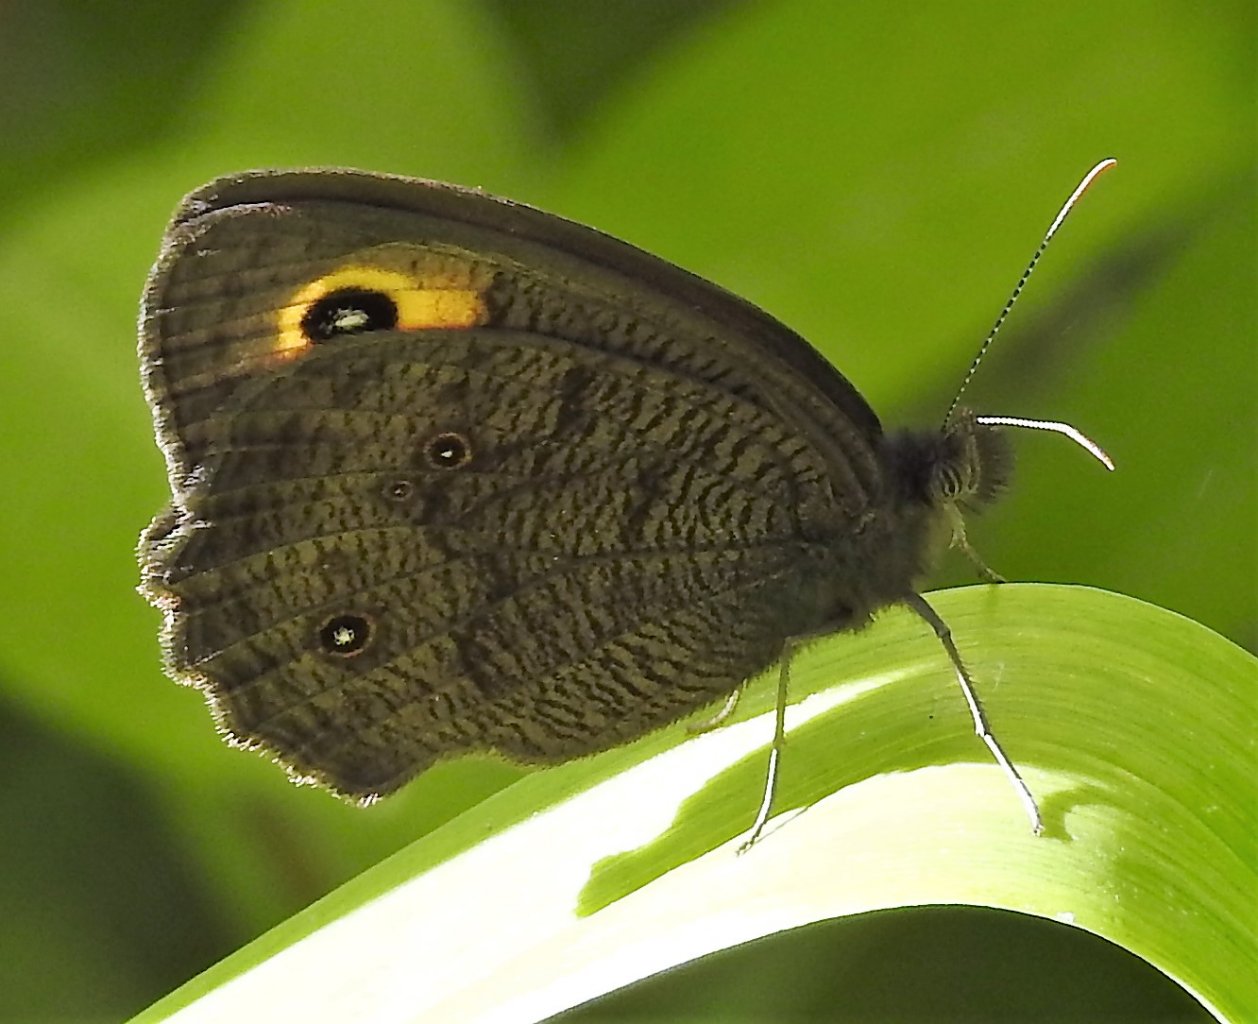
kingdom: Animalia
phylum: Arthropoda
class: Insecta
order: Lepidoptera
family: Nymphalidae
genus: Cercyonis
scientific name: Cercyonis pegala
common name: Common Wood-Nymph
